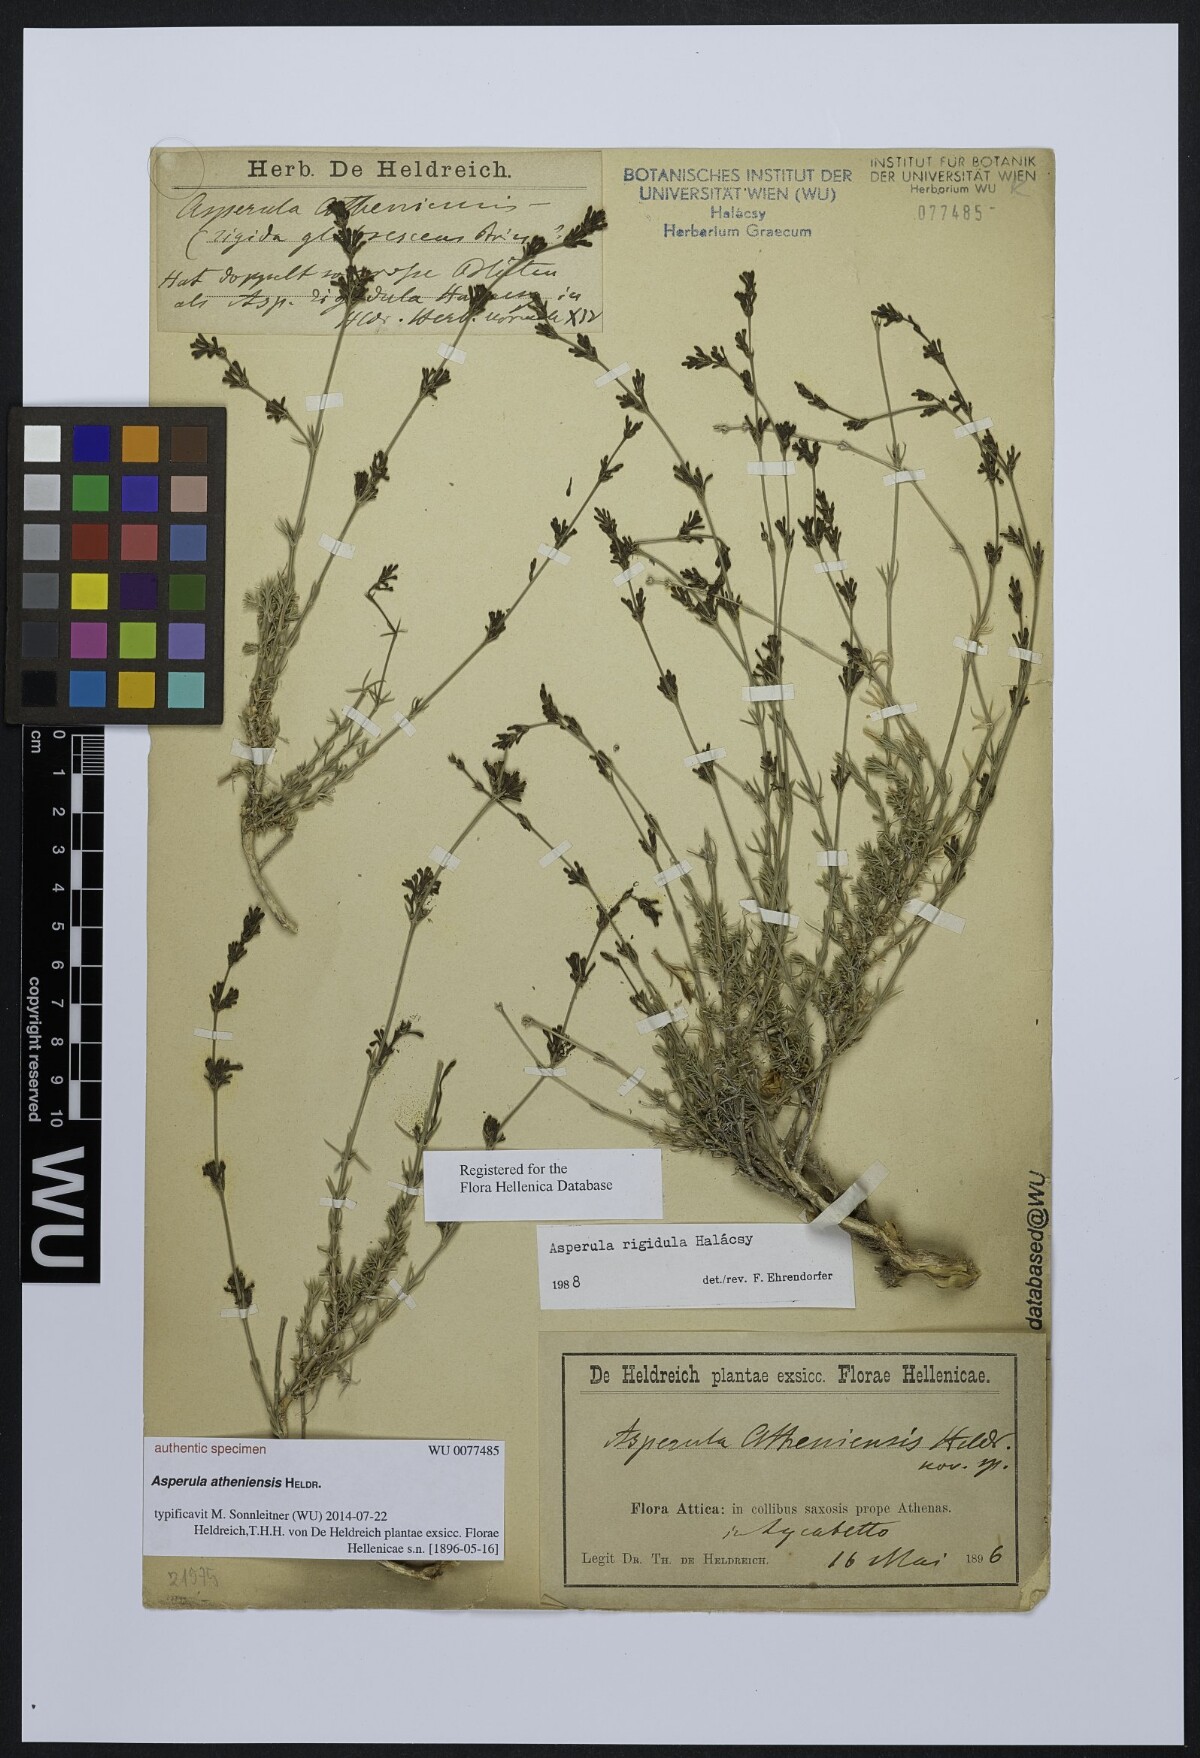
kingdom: Plantae
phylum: Tracheophyta
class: Magnoliopsida
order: Gentianales
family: Rubiaceae
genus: Asperula
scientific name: Asperula
